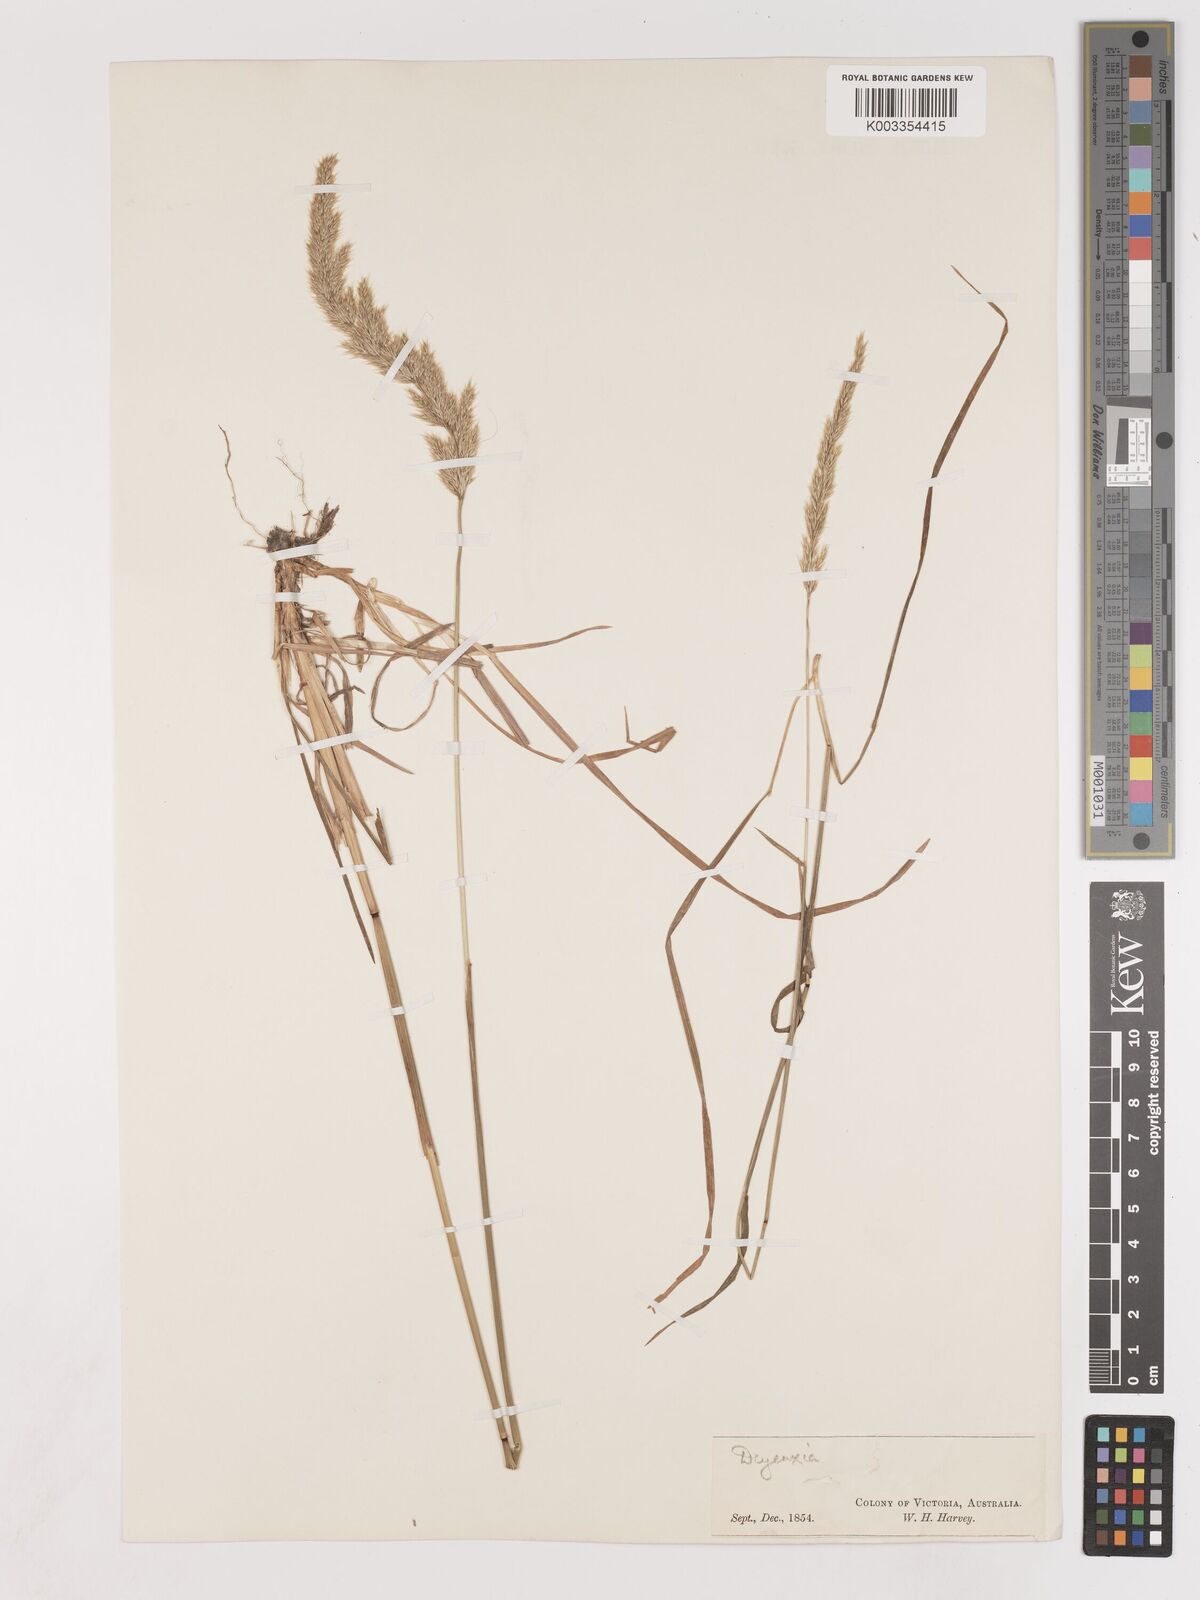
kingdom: Plantae
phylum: Tracheophyta
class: Liliopsida
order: Poales
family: Poaceae
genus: Calamagrostis
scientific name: Calamagrostis
